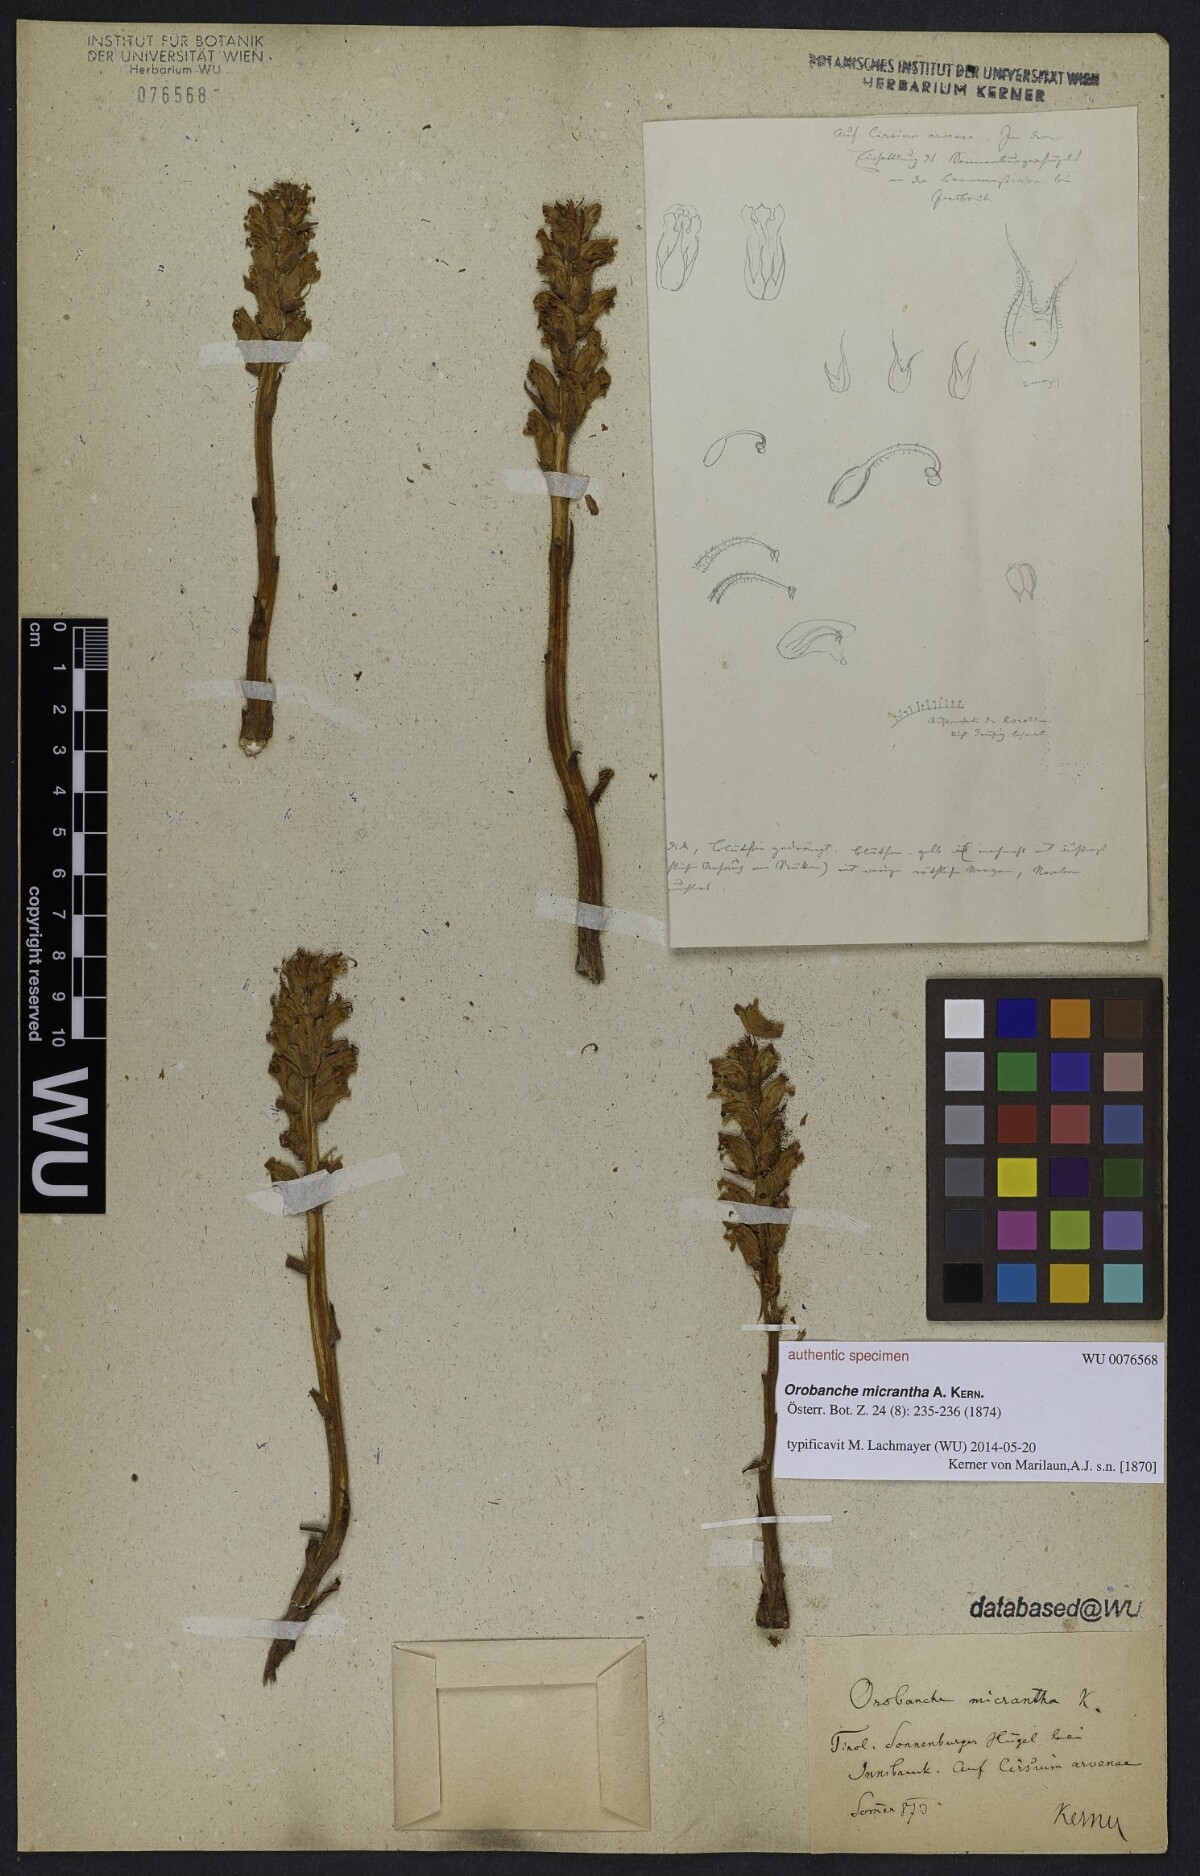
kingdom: Plantae
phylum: Tracheophyta
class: Magnoliopsida
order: Lamiales
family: Orobanchaceae
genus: Orobanche
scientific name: Orobanche salviae
